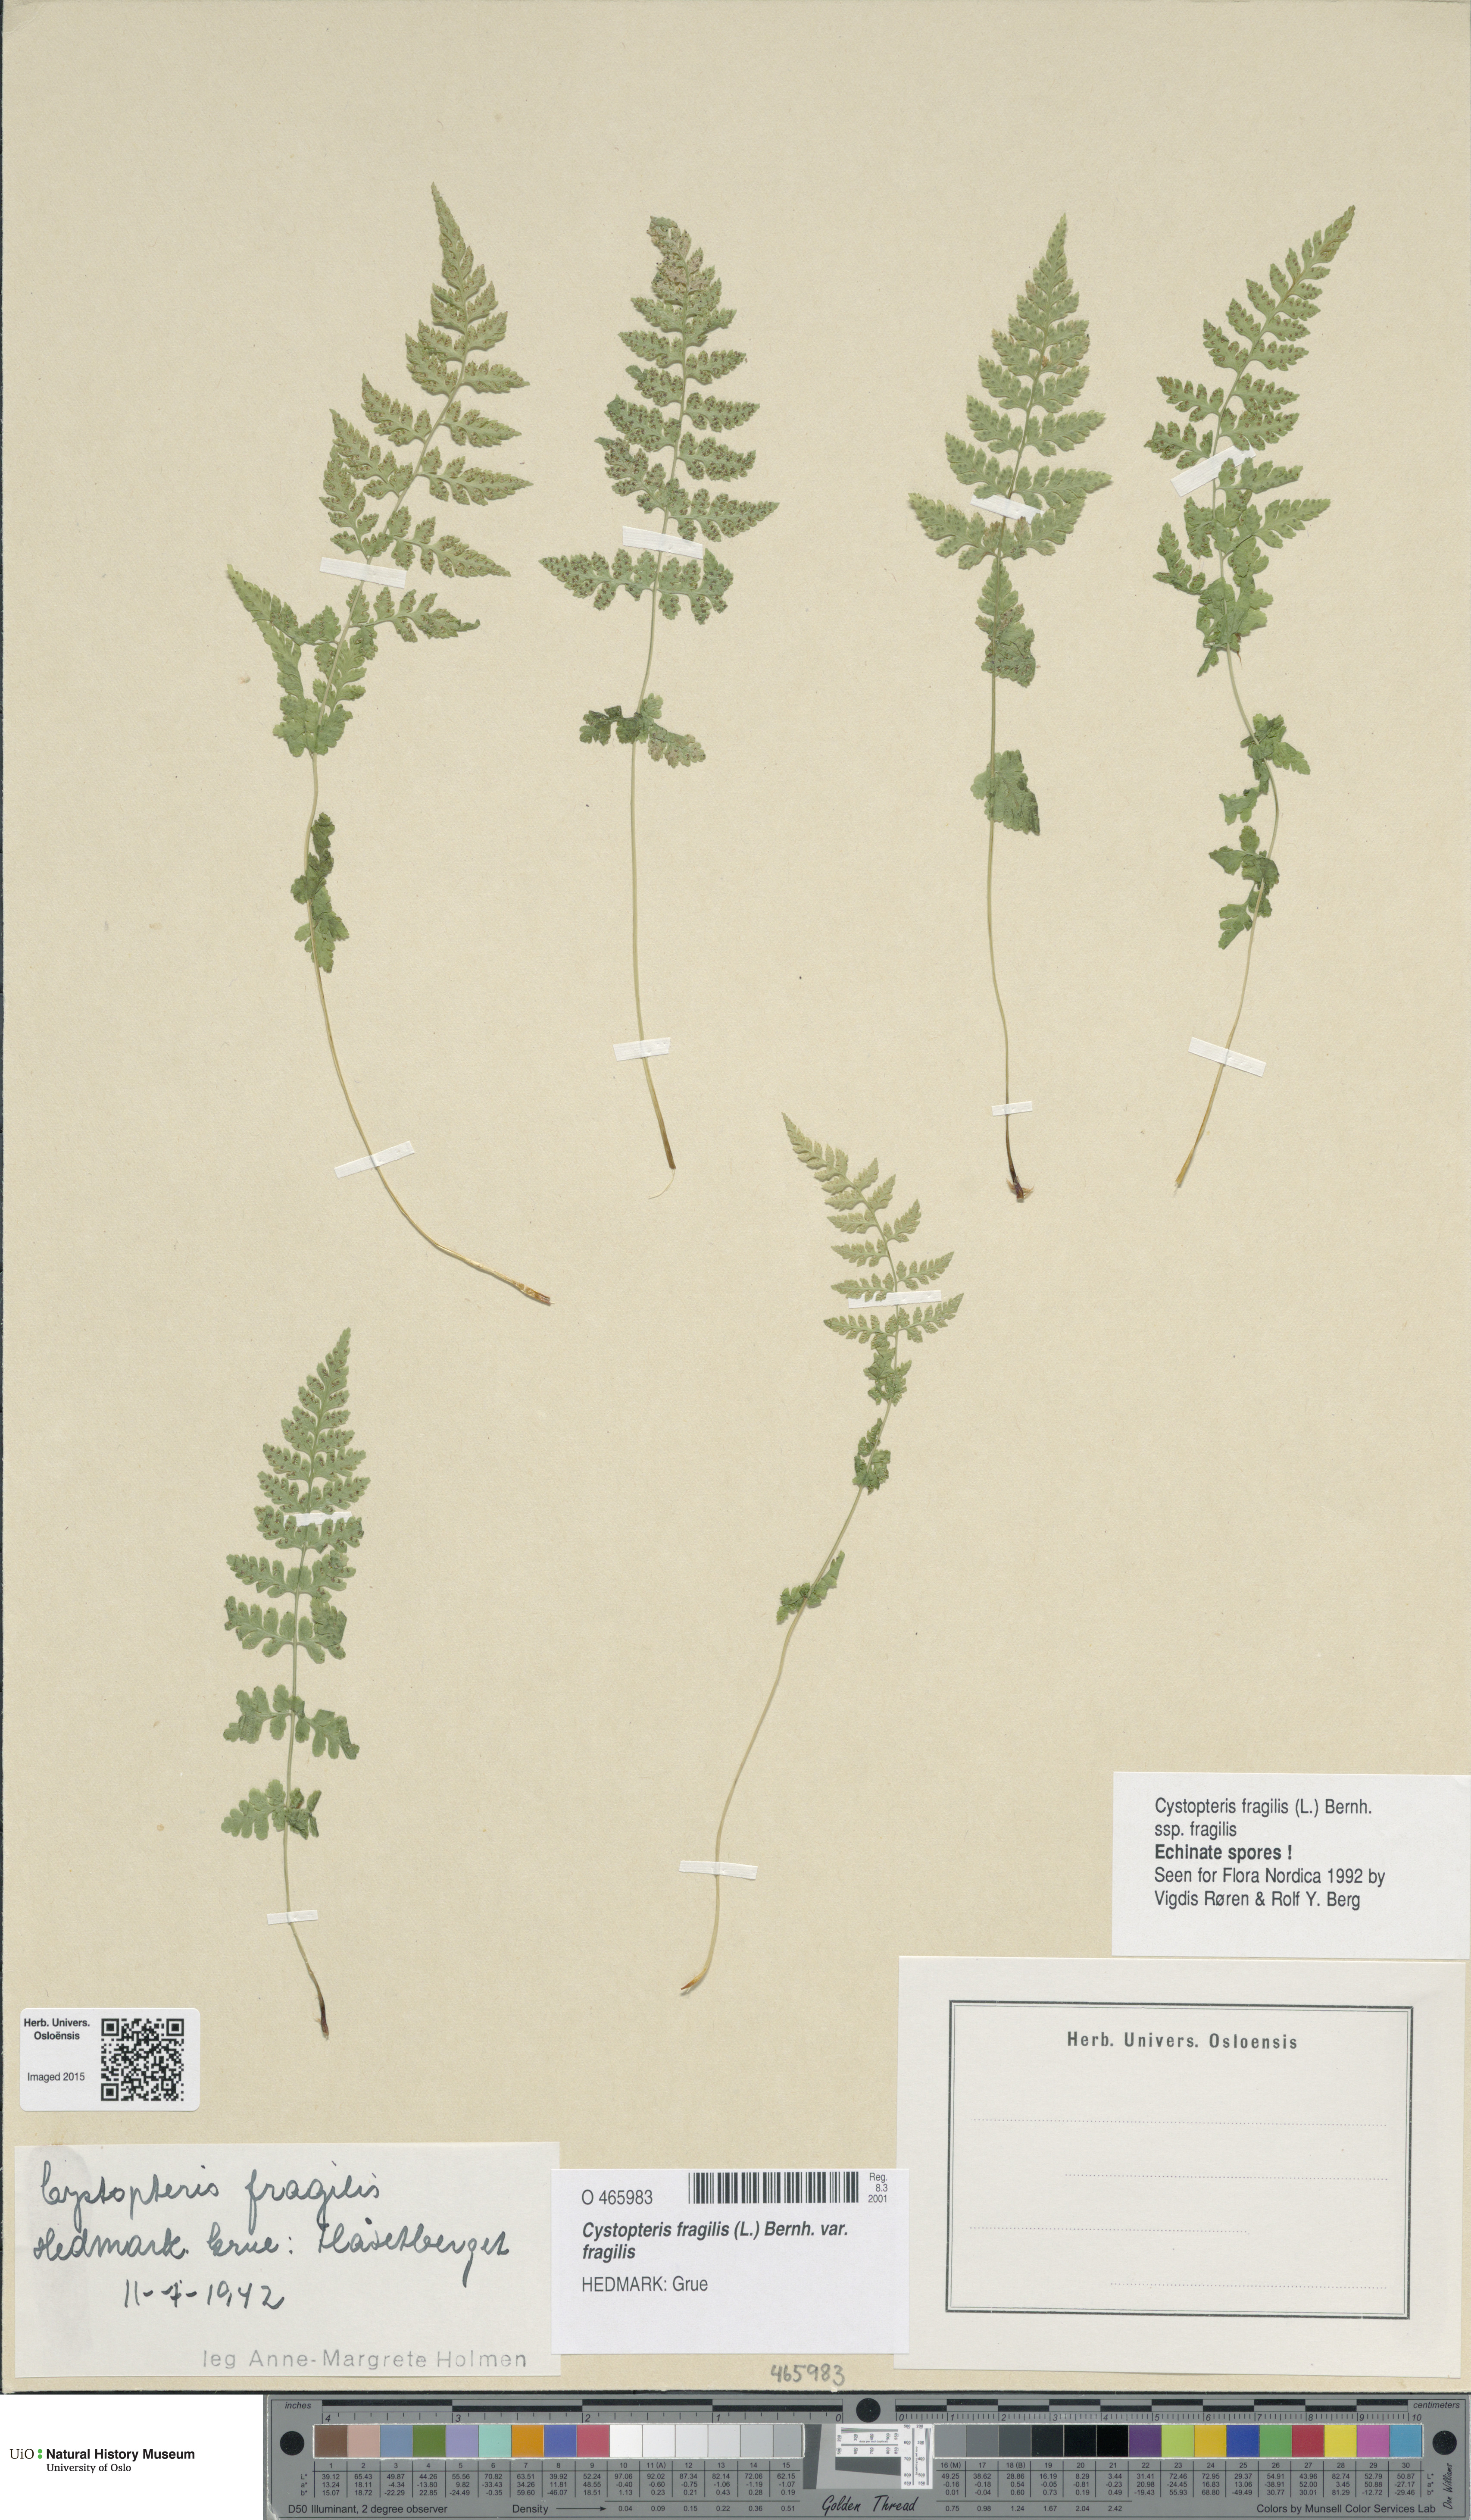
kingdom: Plantae
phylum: Tracheophyta
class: Polypodiopsida
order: Polypodiales
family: Cystopteridaceae
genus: Cystopteris
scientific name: Cystopteris fragilis
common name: Brittle bladder fern
